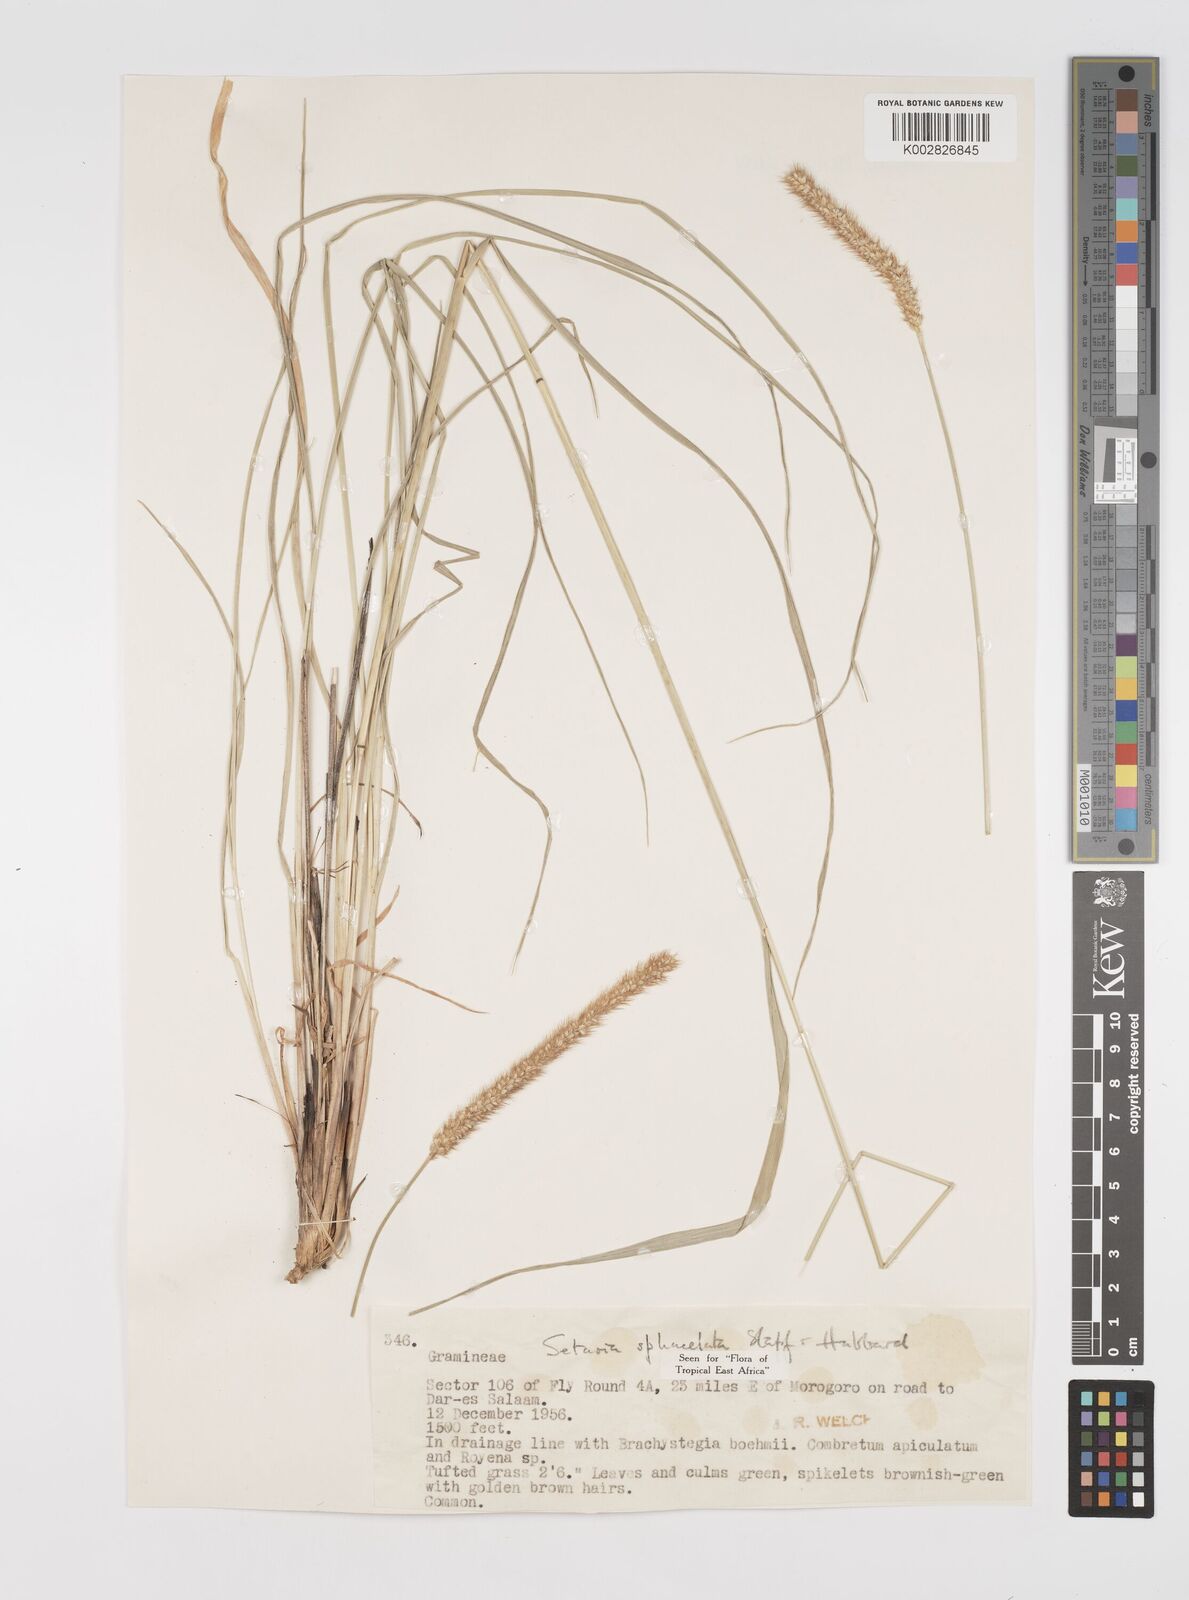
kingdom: Plantae
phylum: Tracheophyta
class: Liliopsida
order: Poales
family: Poaceae
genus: Setaria
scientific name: Setaria sphacelata
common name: African bristlegrass
